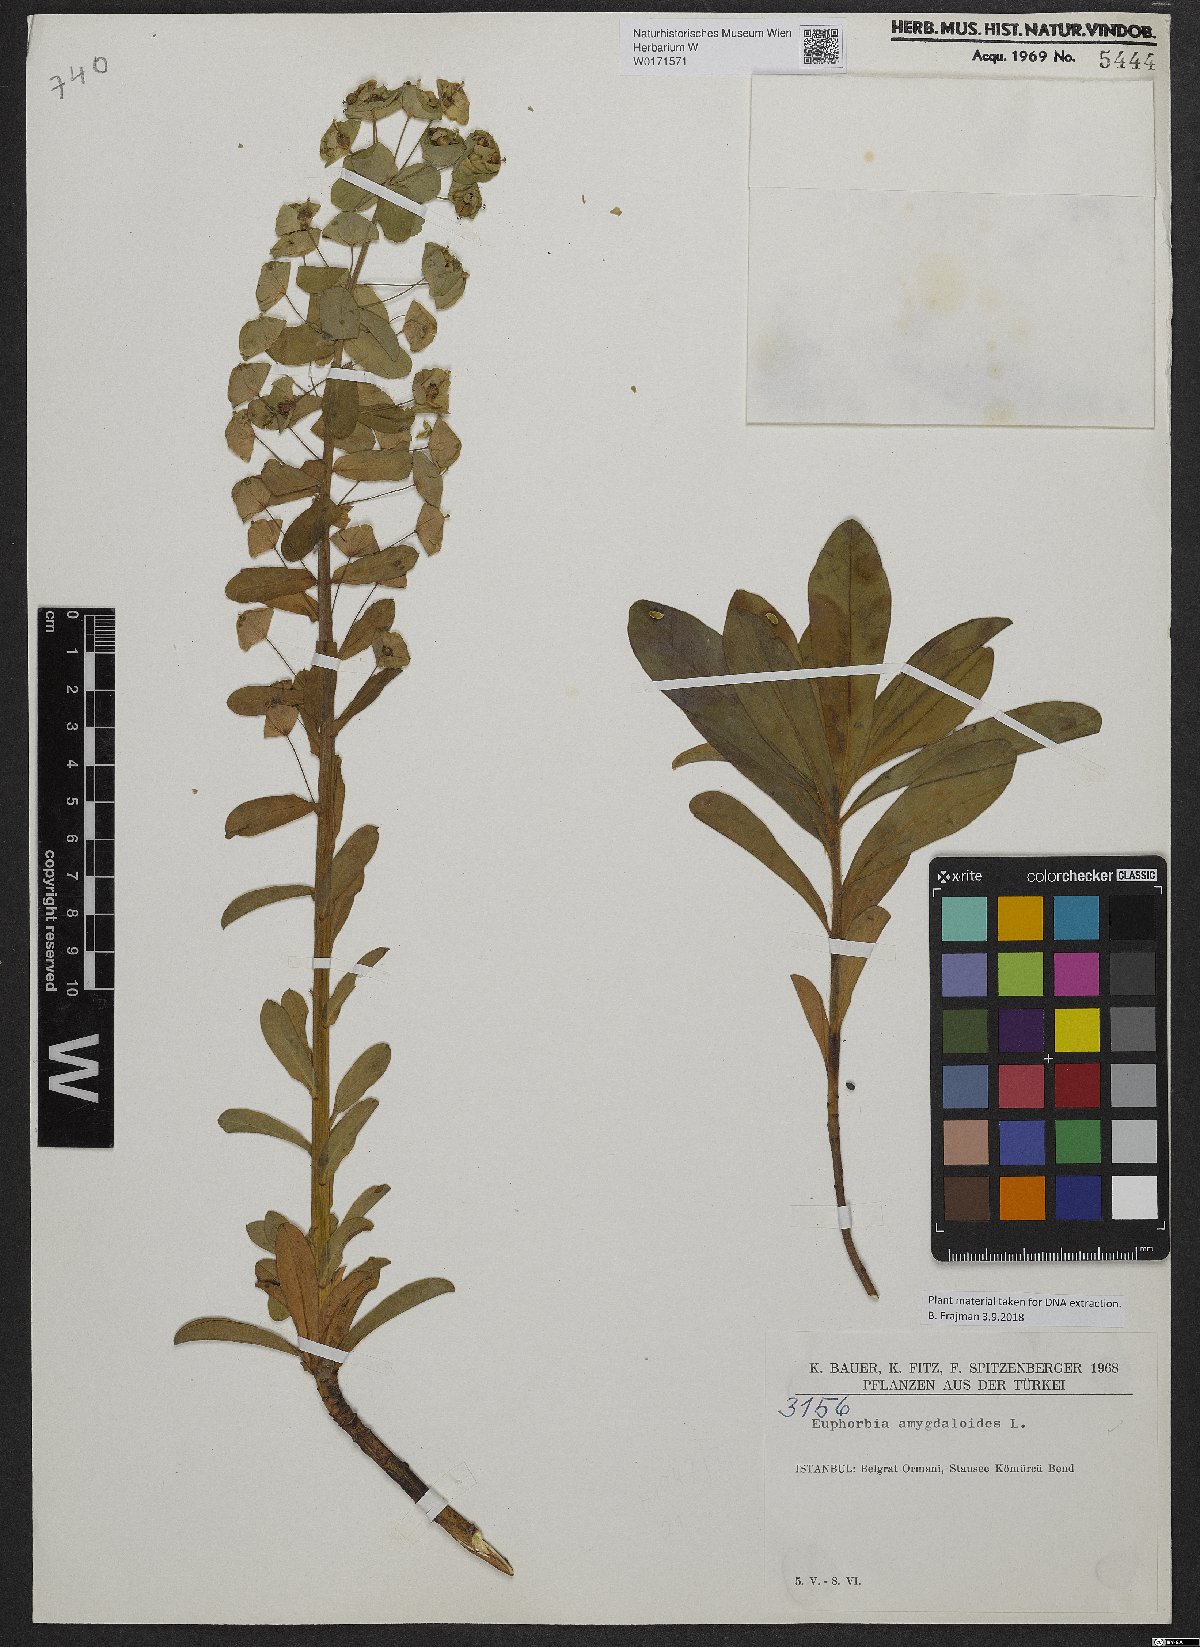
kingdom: Plantae
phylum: Tracheophyta
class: Magnoliopsida
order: Malpighiales
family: Euphorbiaceae
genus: Euphorbia
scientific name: Euphorbia amygdaloides
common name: Wood spurge
